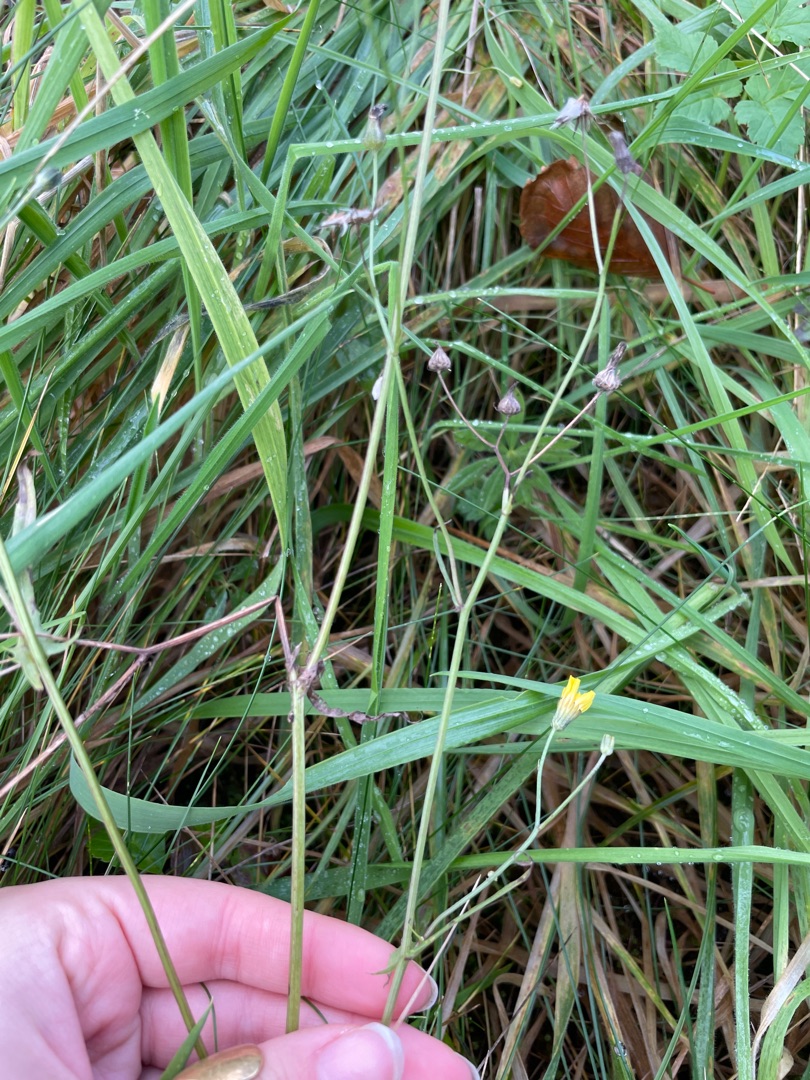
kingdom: Plantae
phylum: Tracheophyta
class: Magnoliopsida
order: Asterales
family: Asteraceae
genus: Crepis
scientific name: Crepis capillaris
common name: Grøn høgeskæg
